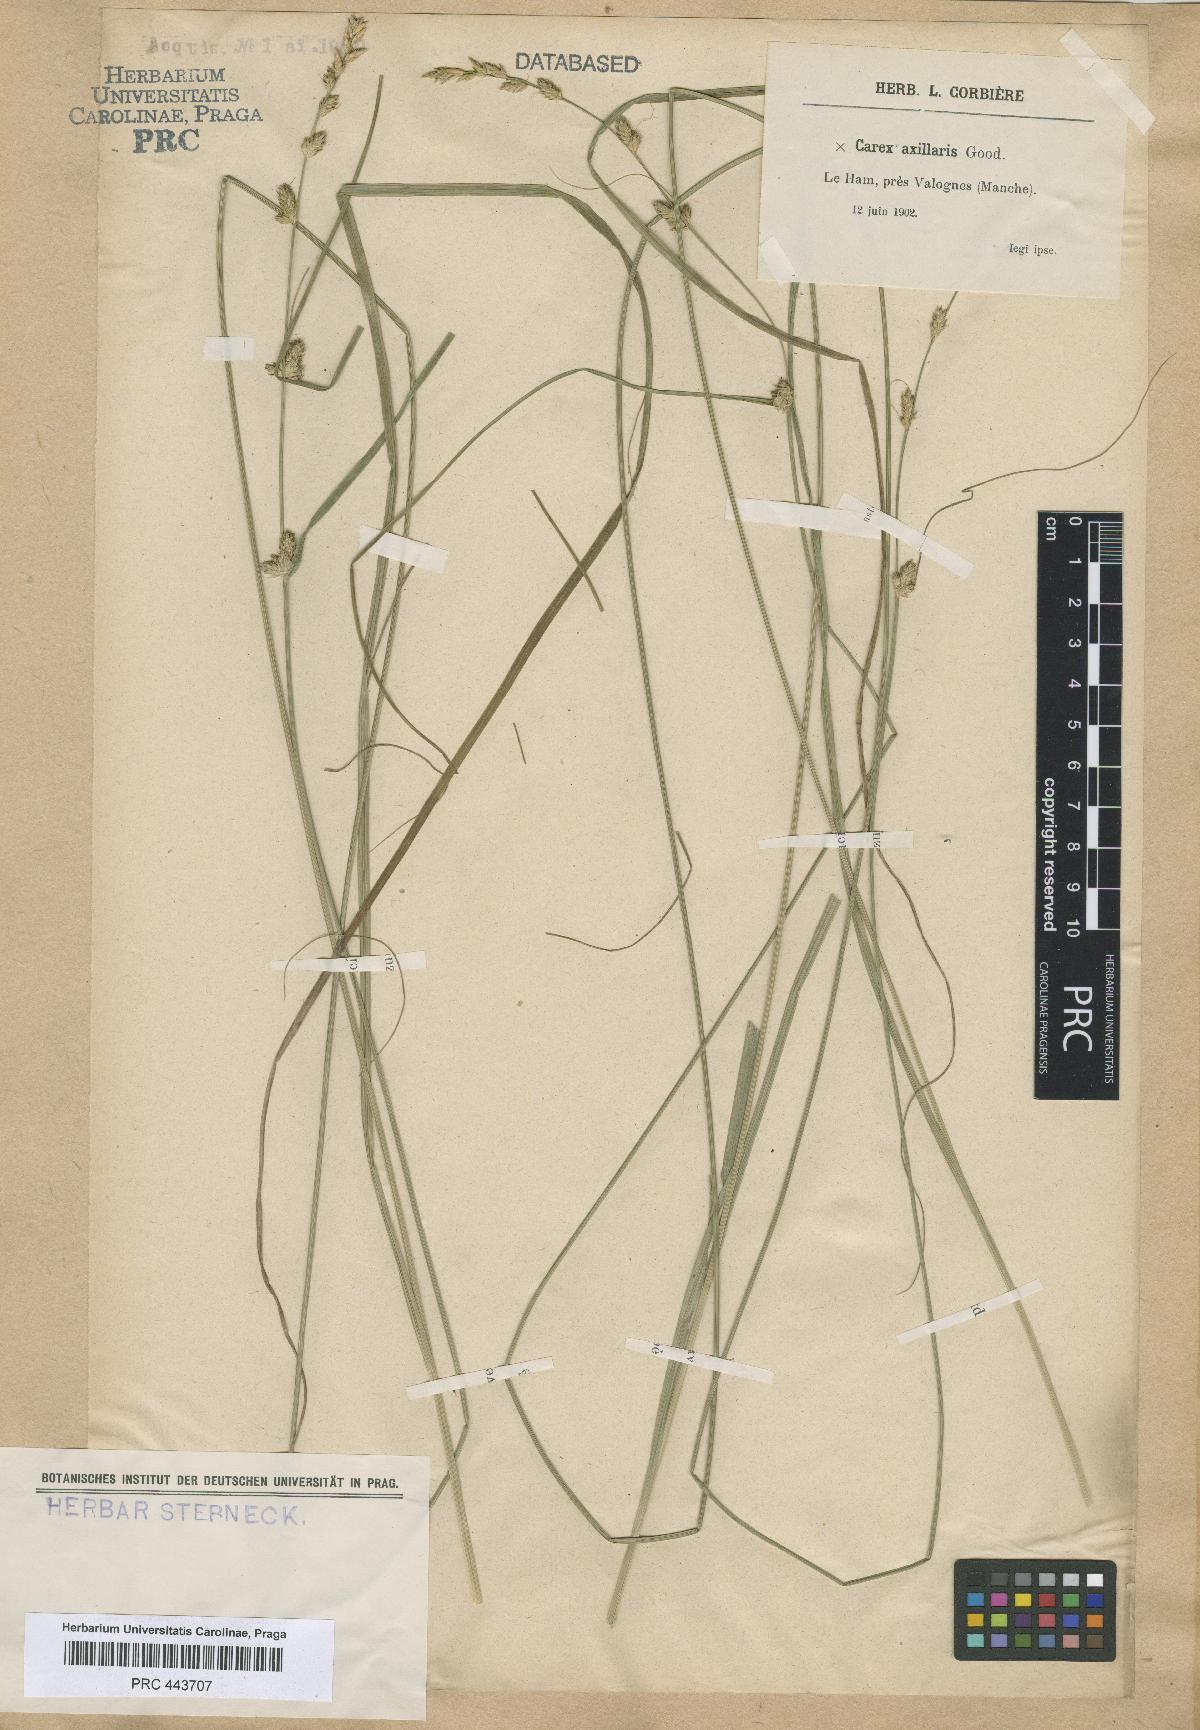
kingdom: Plantae
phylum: Tracheophyta
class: Liliopsida
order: Poales
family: Cyperaceae
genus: Carex
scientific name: Carex pseudoaxillaris
